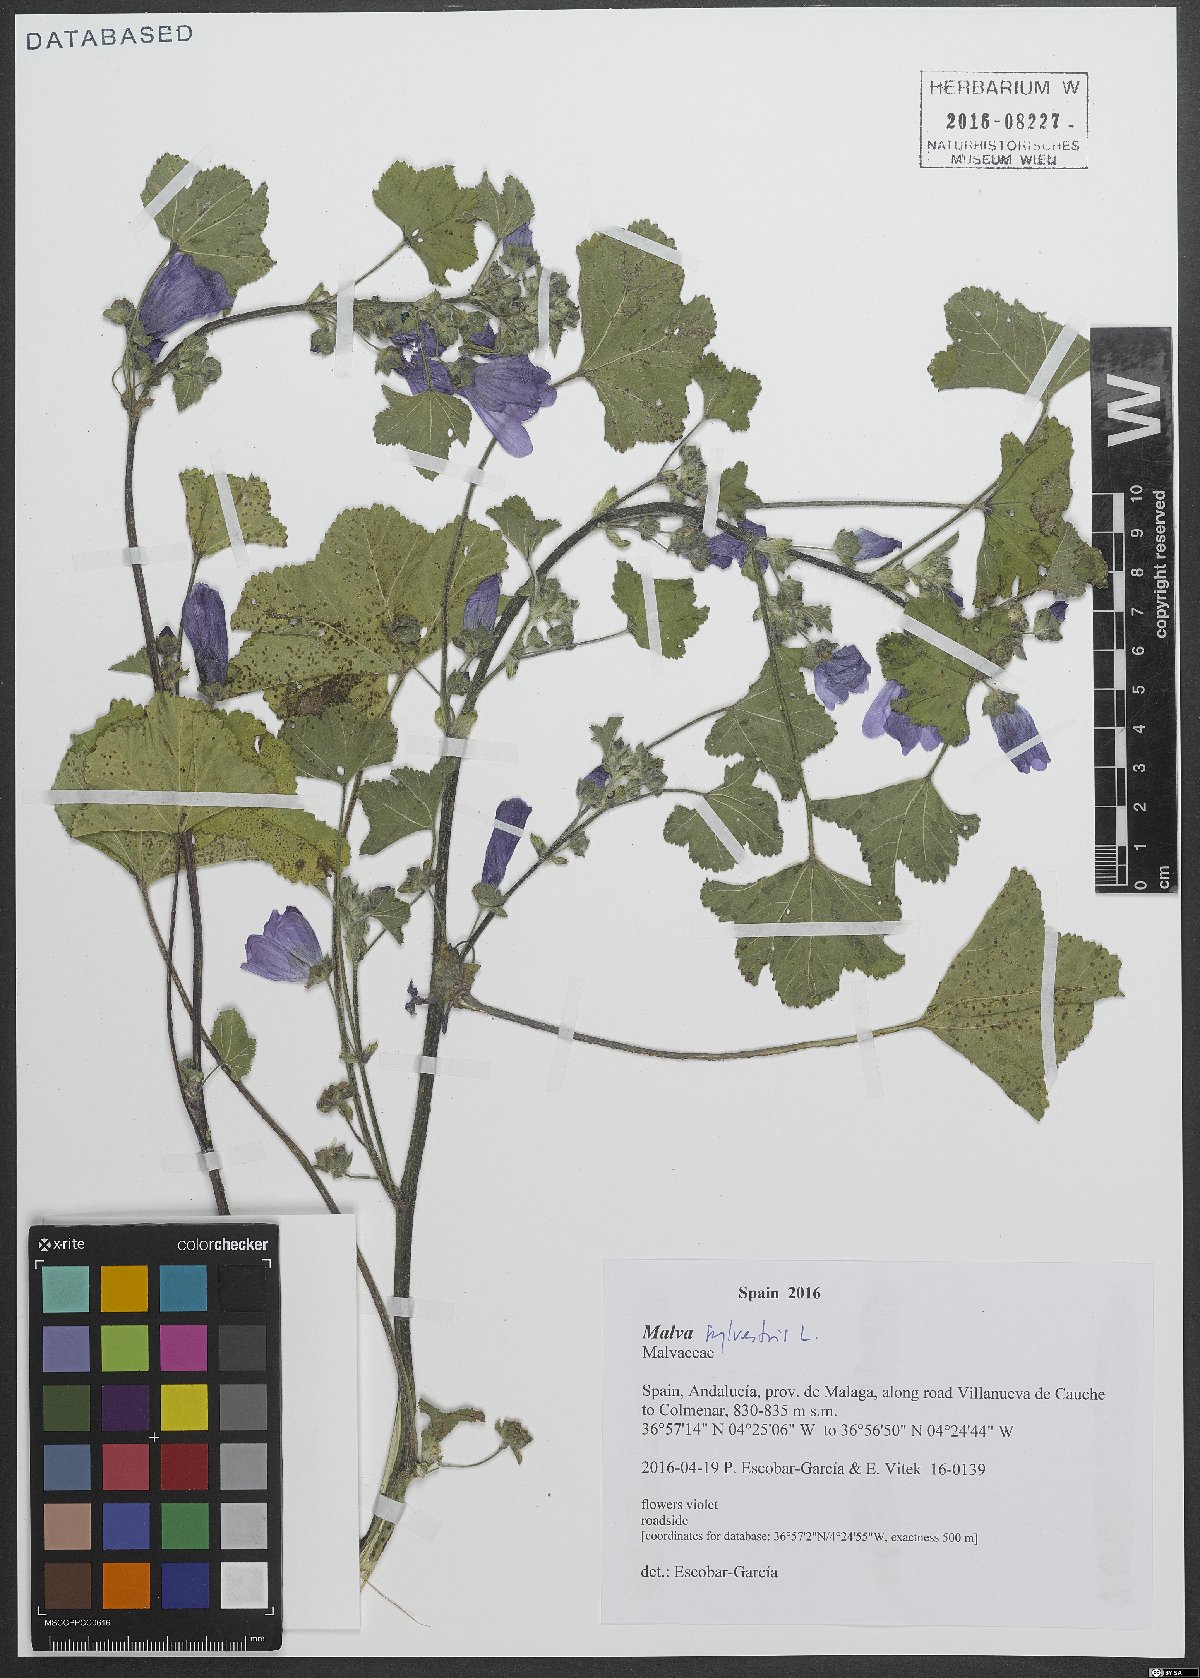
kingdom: Plantae
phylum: Tracheophyta
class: Magnoliopsida
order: Malvales
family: Malvaceae
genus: Malva
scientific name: Malva sylvestris
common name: Common mallow
